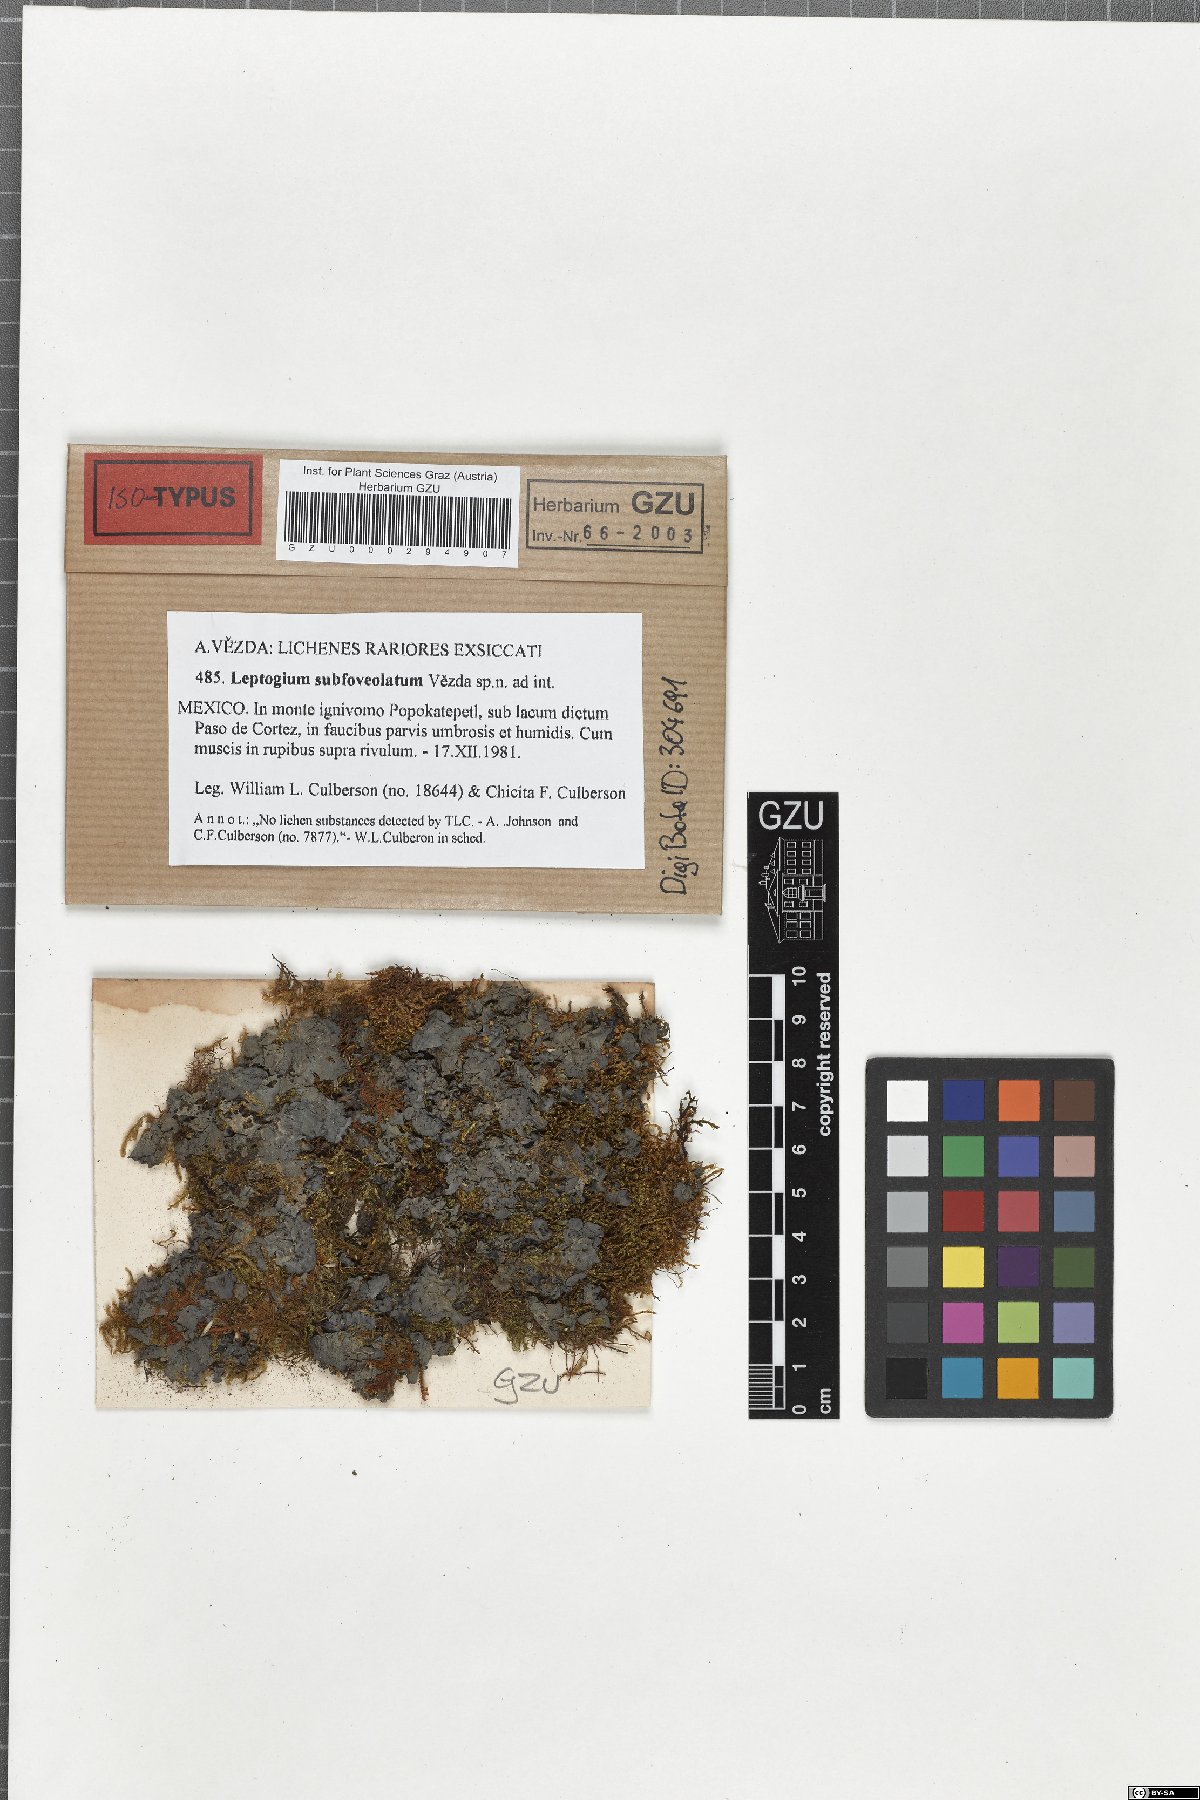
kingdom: Fungi
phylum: Ascomycota
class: Lecanoromycetes
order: Peltigerales
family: Collemataceae
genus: Leptogium
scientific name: Leptogium
